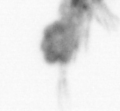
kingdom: Animalia
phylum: Arthropoda
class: Copepoda
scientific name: Copepoda
